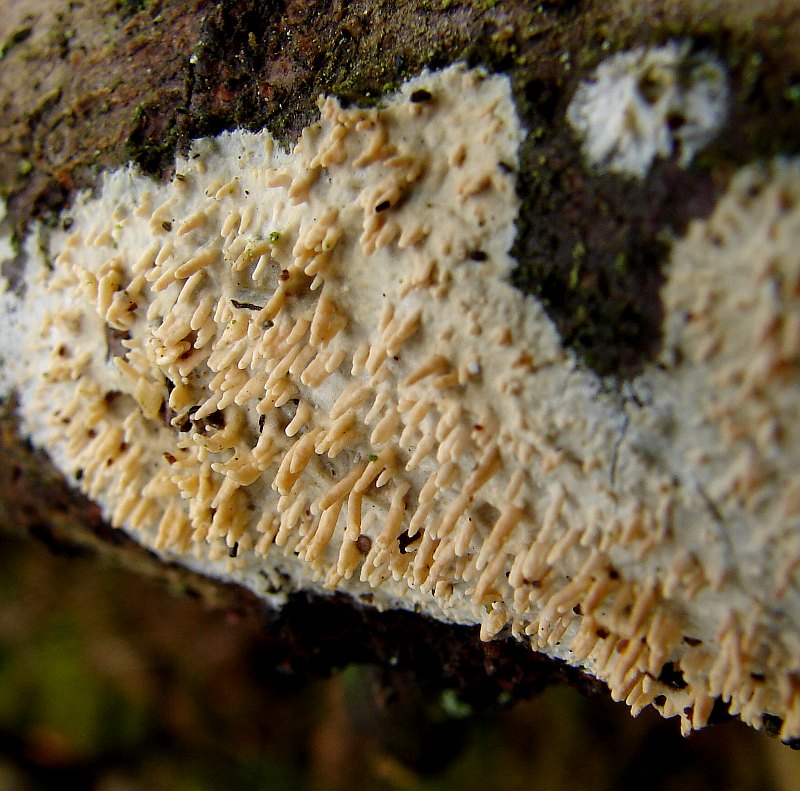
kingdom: Fungi
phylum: Basidiomycota
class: Agaricomycetes
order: Hymenochaetales
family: Schizoporaceae
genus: Xylodon
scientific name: Xylodon radula
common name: grovtandet kalkskind
